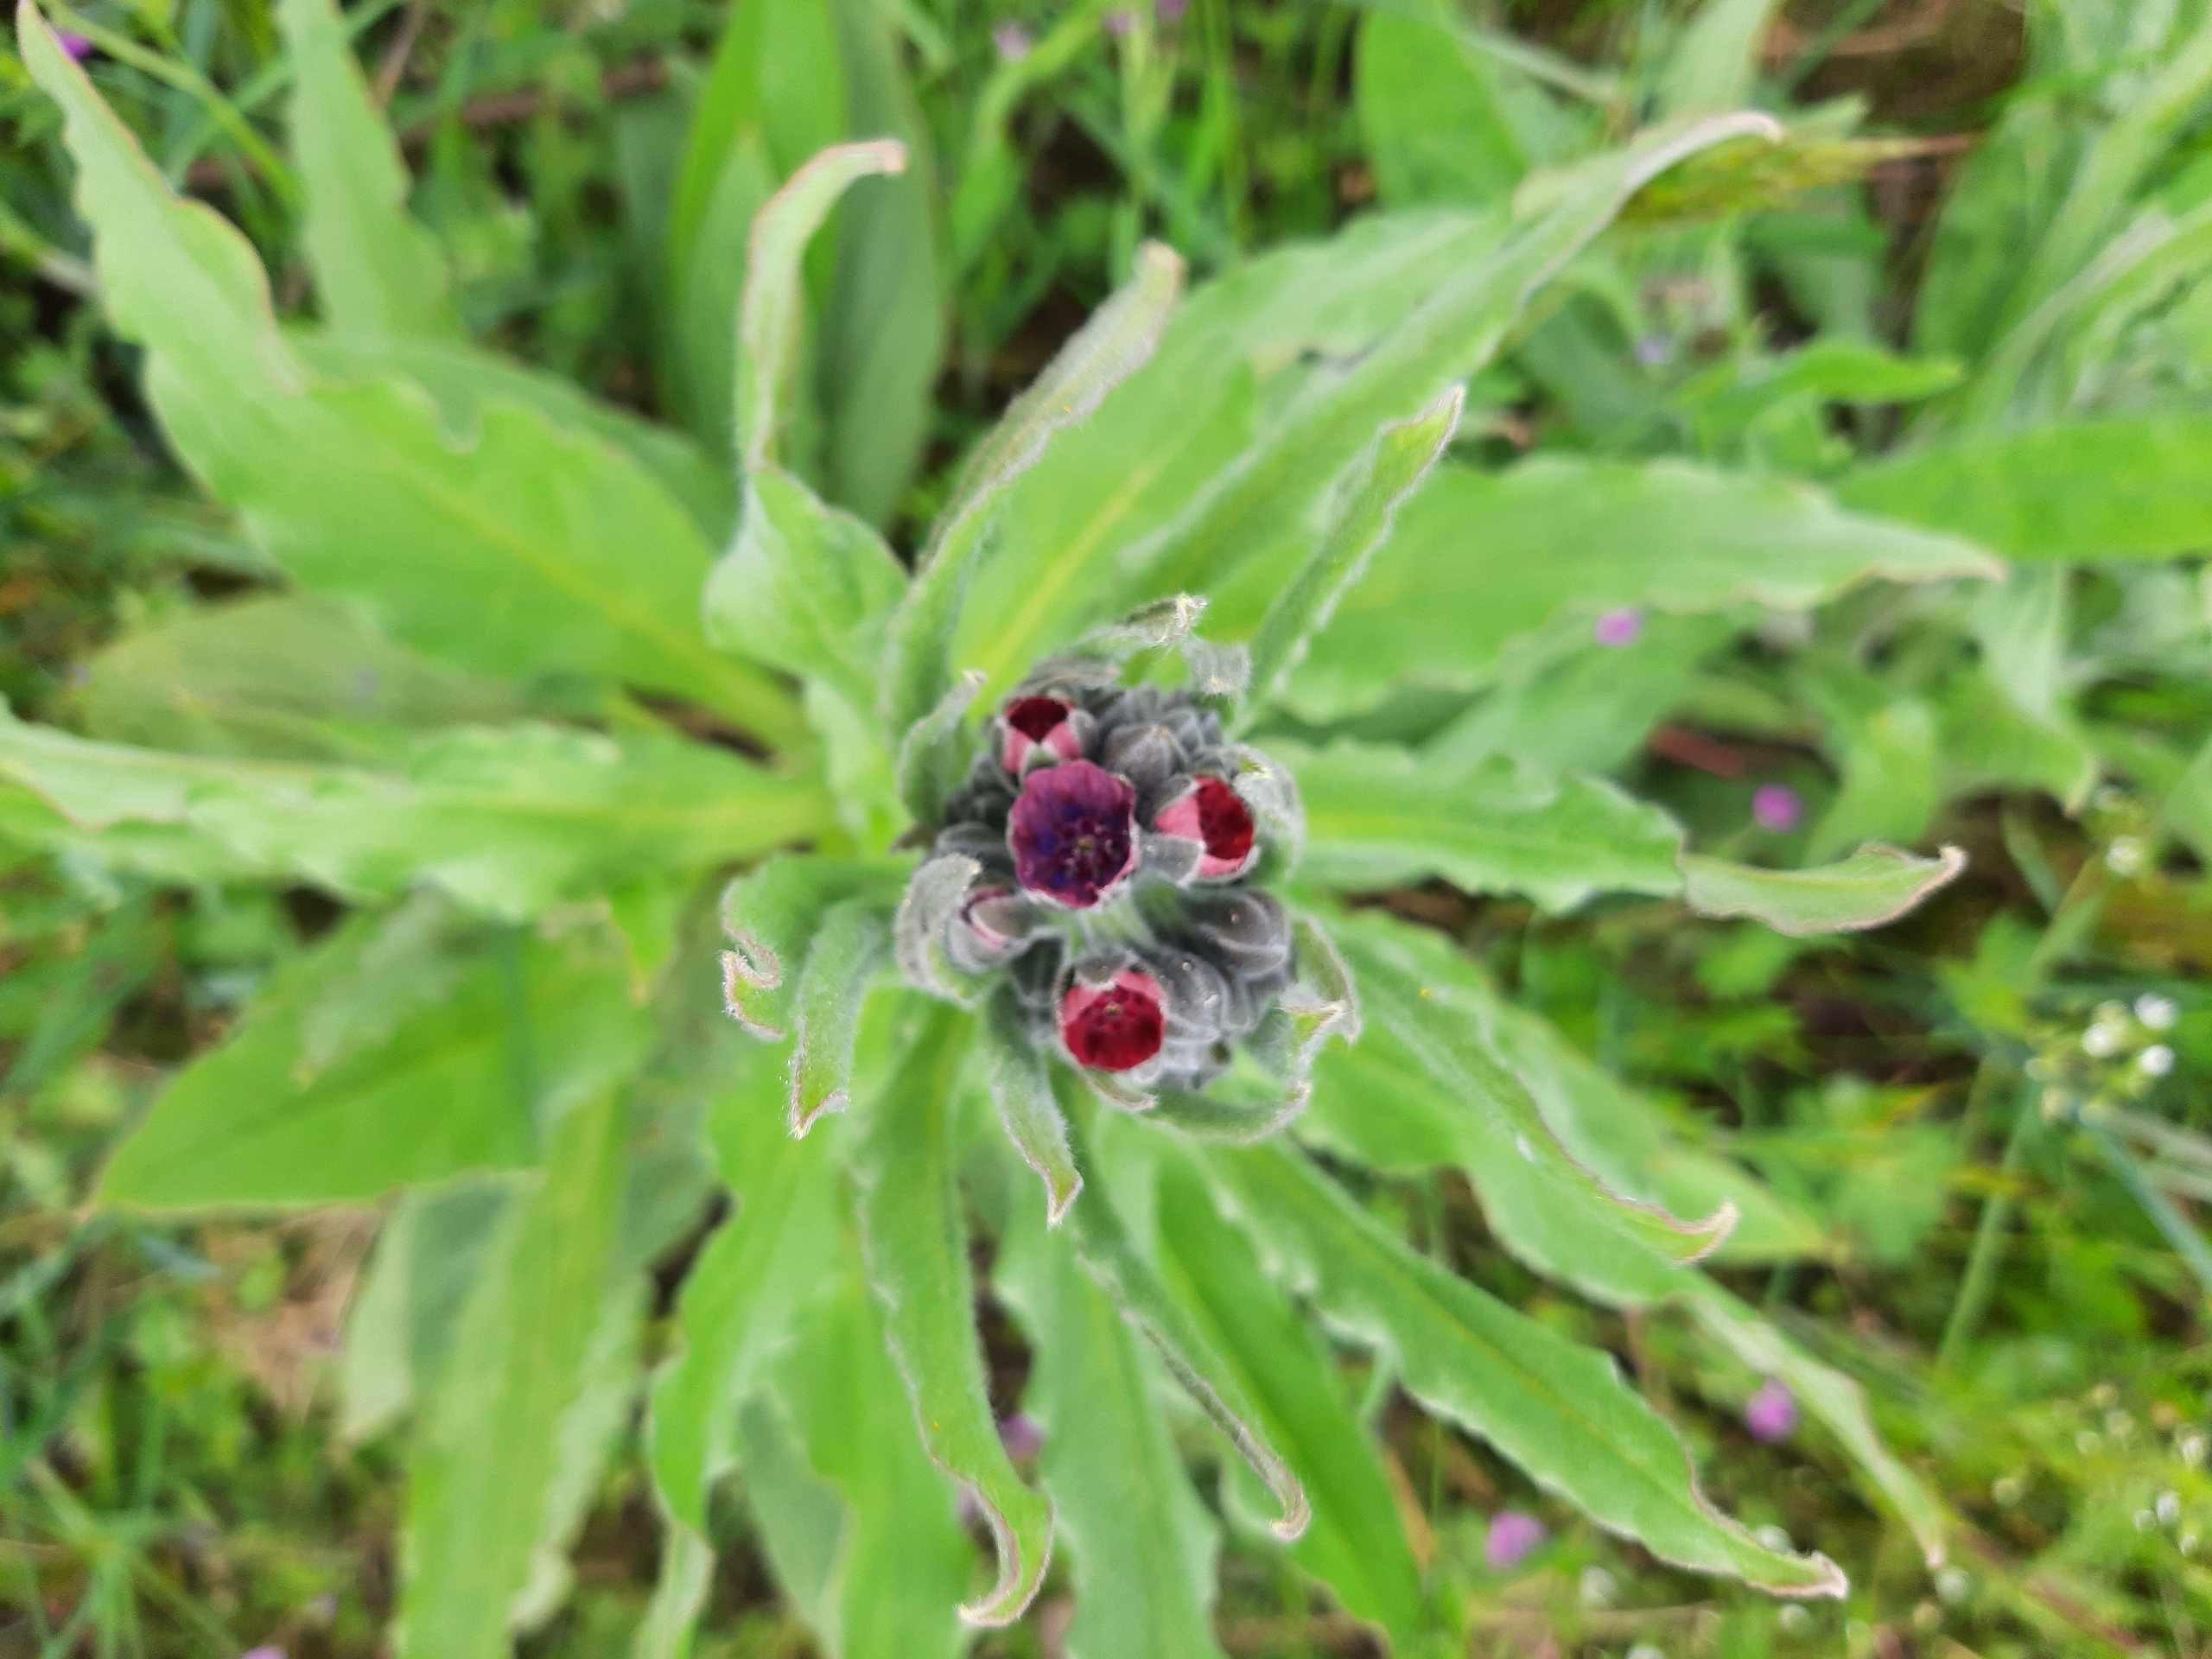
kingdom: Plantae
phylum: Tracheophyta
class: Magnoliopsida
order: Boraginales
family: Boraginaceae
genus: Cynoglossum
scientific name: Cynoglossum officinale
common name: Hundetunge
